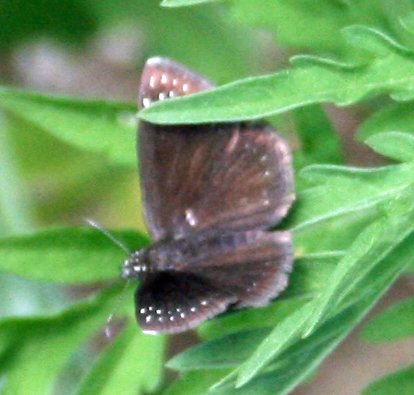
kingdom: Animalia
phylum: Arthropoda
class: Insecta
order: Lepidoptera
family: Hesperiidae
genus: Pholisora
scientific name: Pholisora catullus
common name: Common Sootywing
